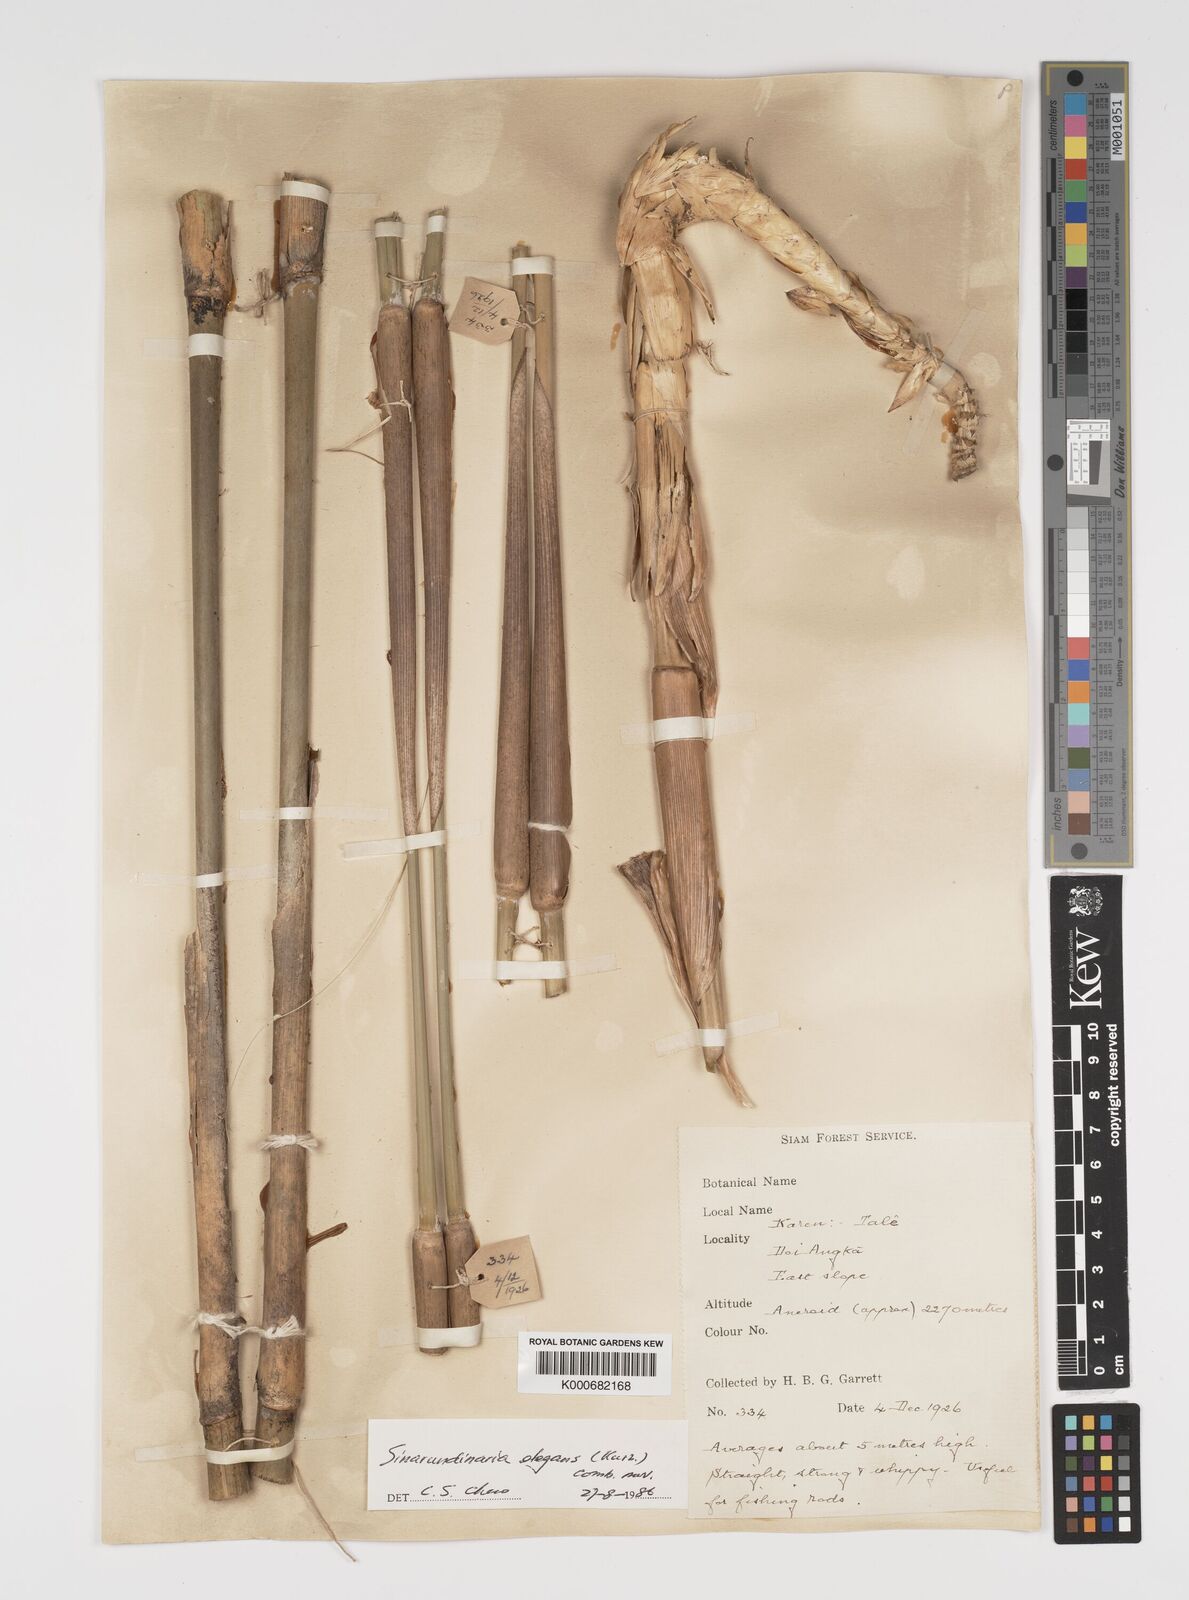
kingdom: Plantae
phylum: Tracheophyta
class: Liliopsida
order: Poales
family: Poaceae
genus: Yushania
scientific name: Yushania schmidiana
